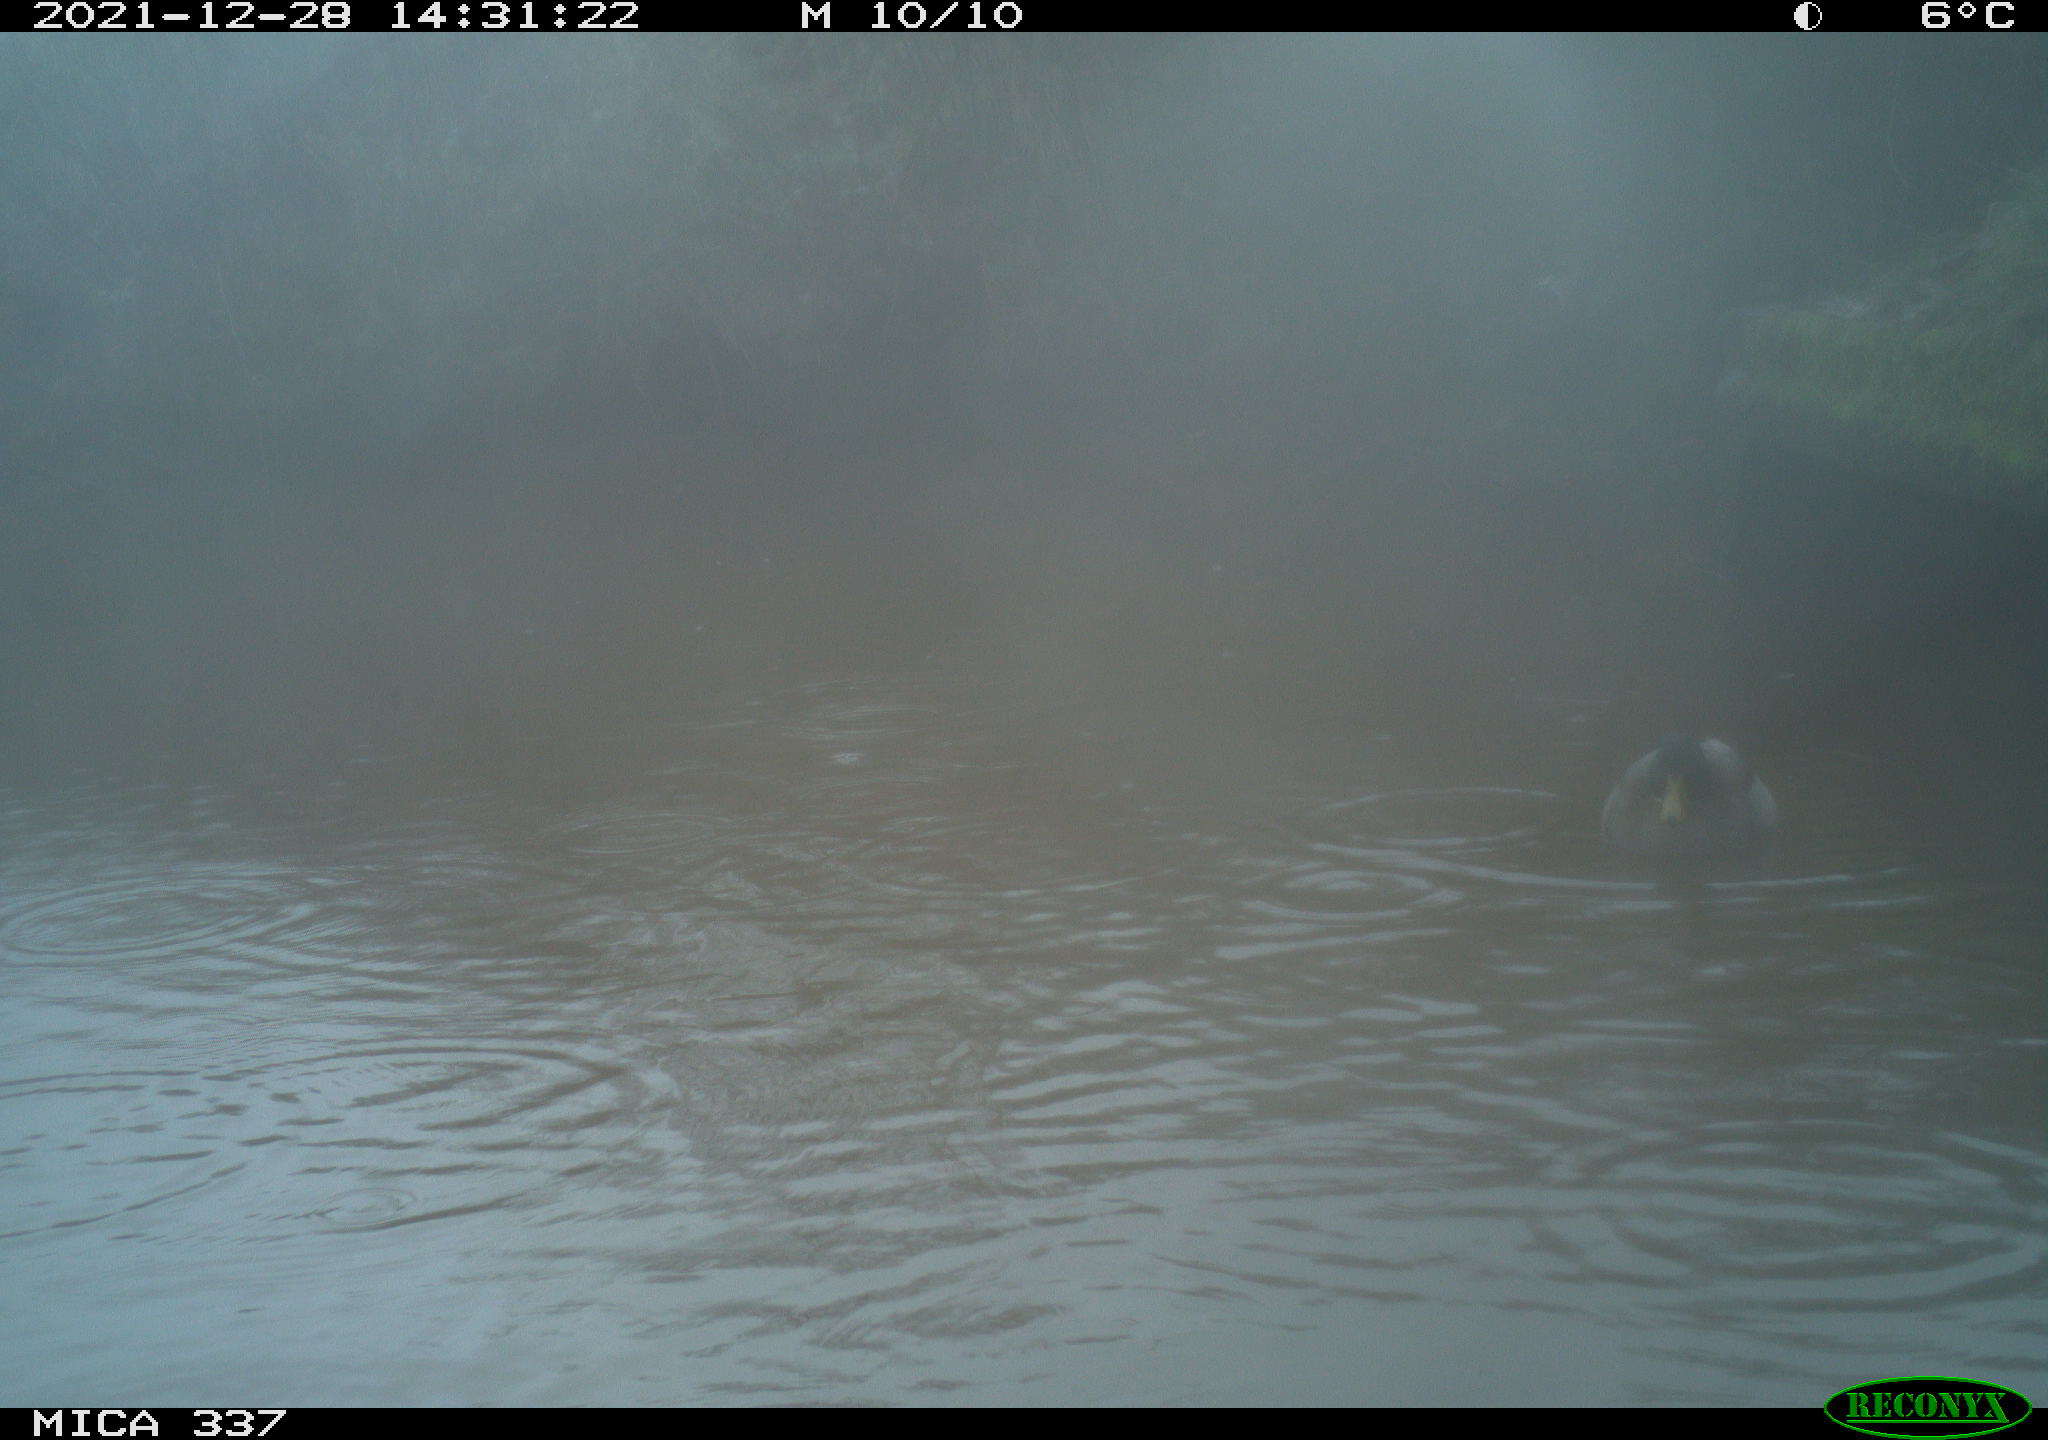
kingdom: Animalia
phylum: Chordata
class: Aves
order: Anseriformes
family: Anatidae
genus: Anas
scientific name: Anas platyrhynchos
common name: Mallard
